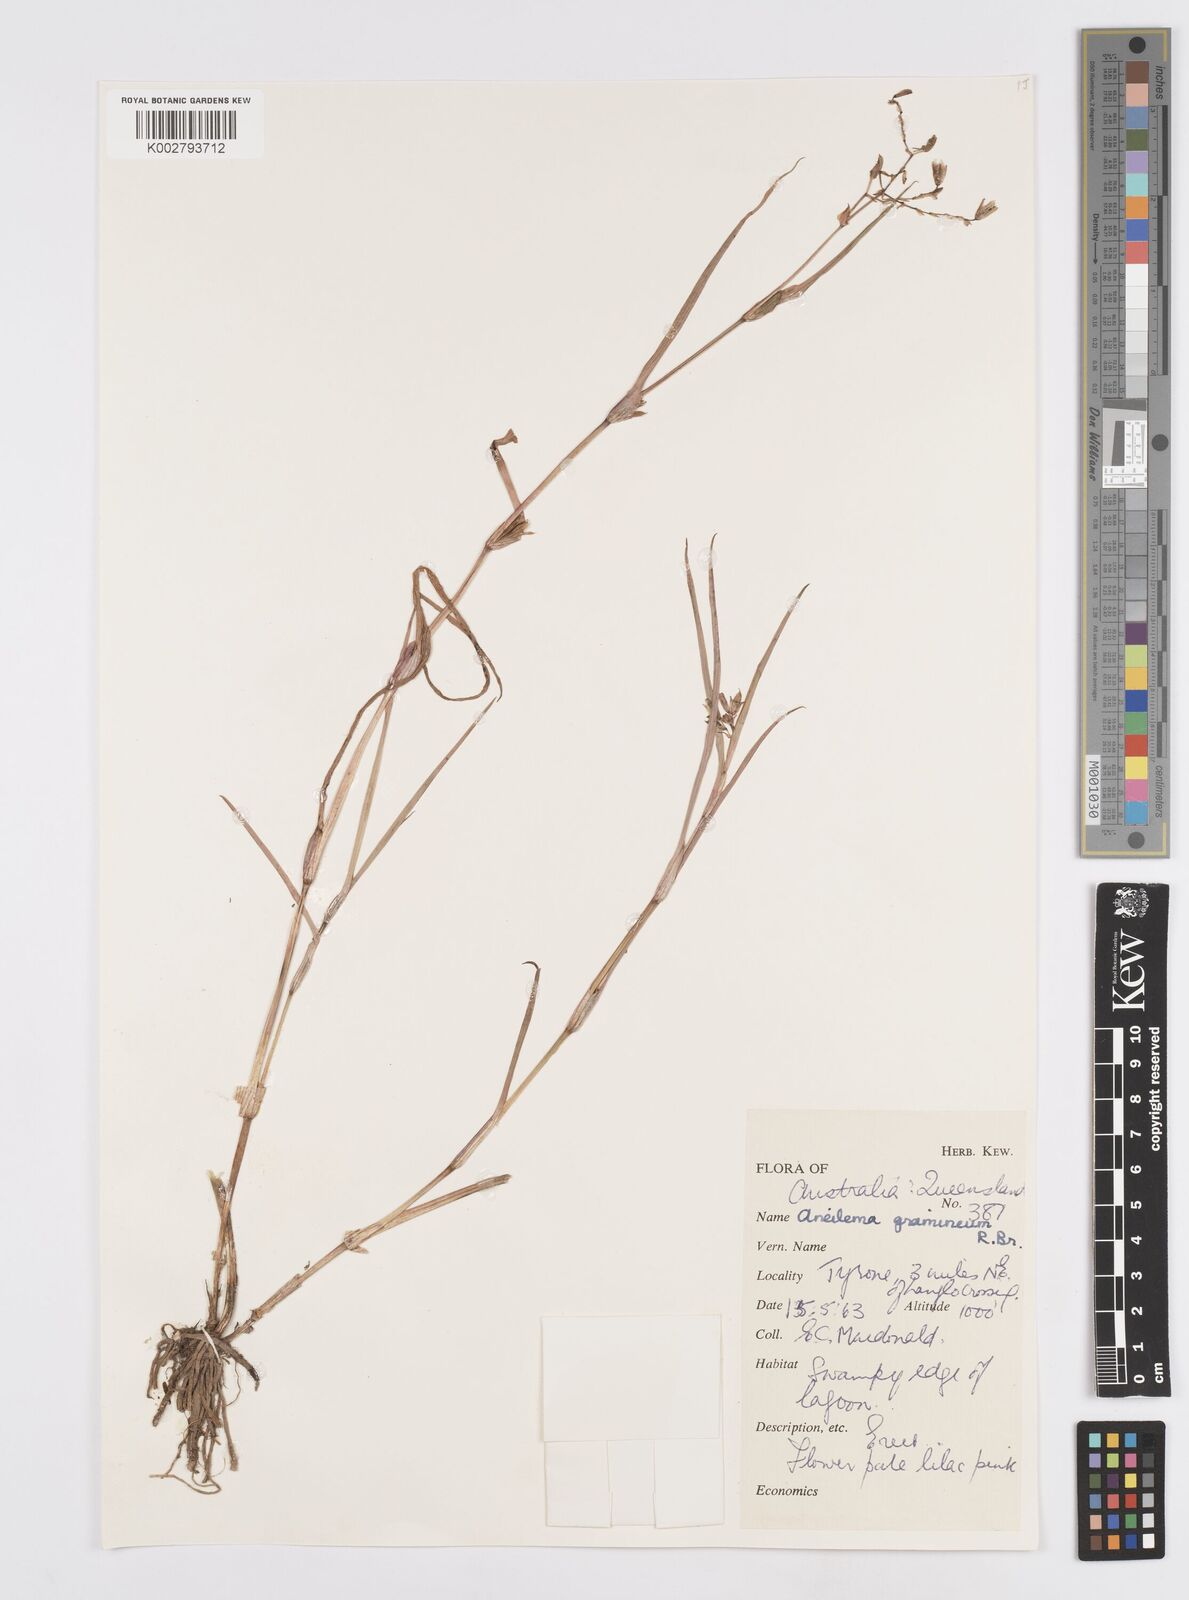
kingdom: Plantae
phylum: Tracheophyta
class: Liliopsida
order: Commelinales
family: Commelinaceae
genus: Murdannia
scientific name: Murdannia graminea
